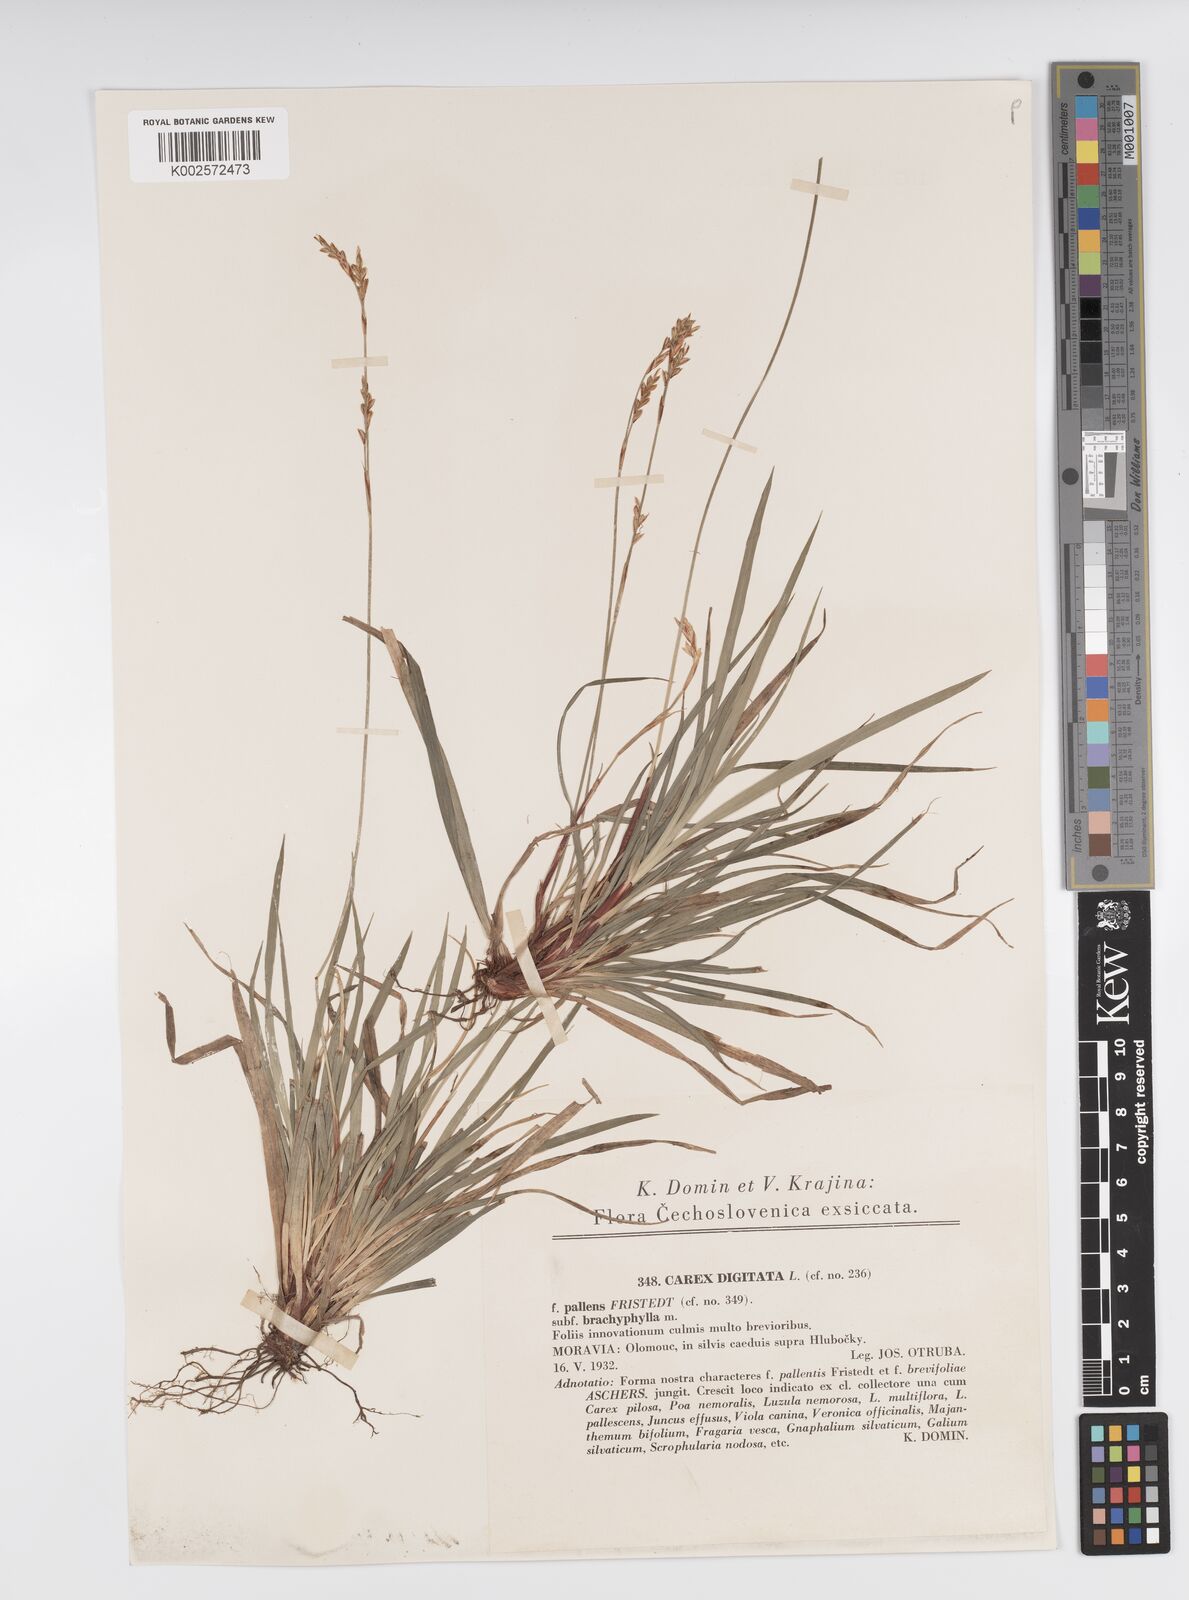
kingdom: Plantae
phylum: Tracheophyta
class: Liliopsida
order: Poales
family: Cyperaceae
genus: Carex
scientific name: Carex digitata
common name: Fingered sedge
